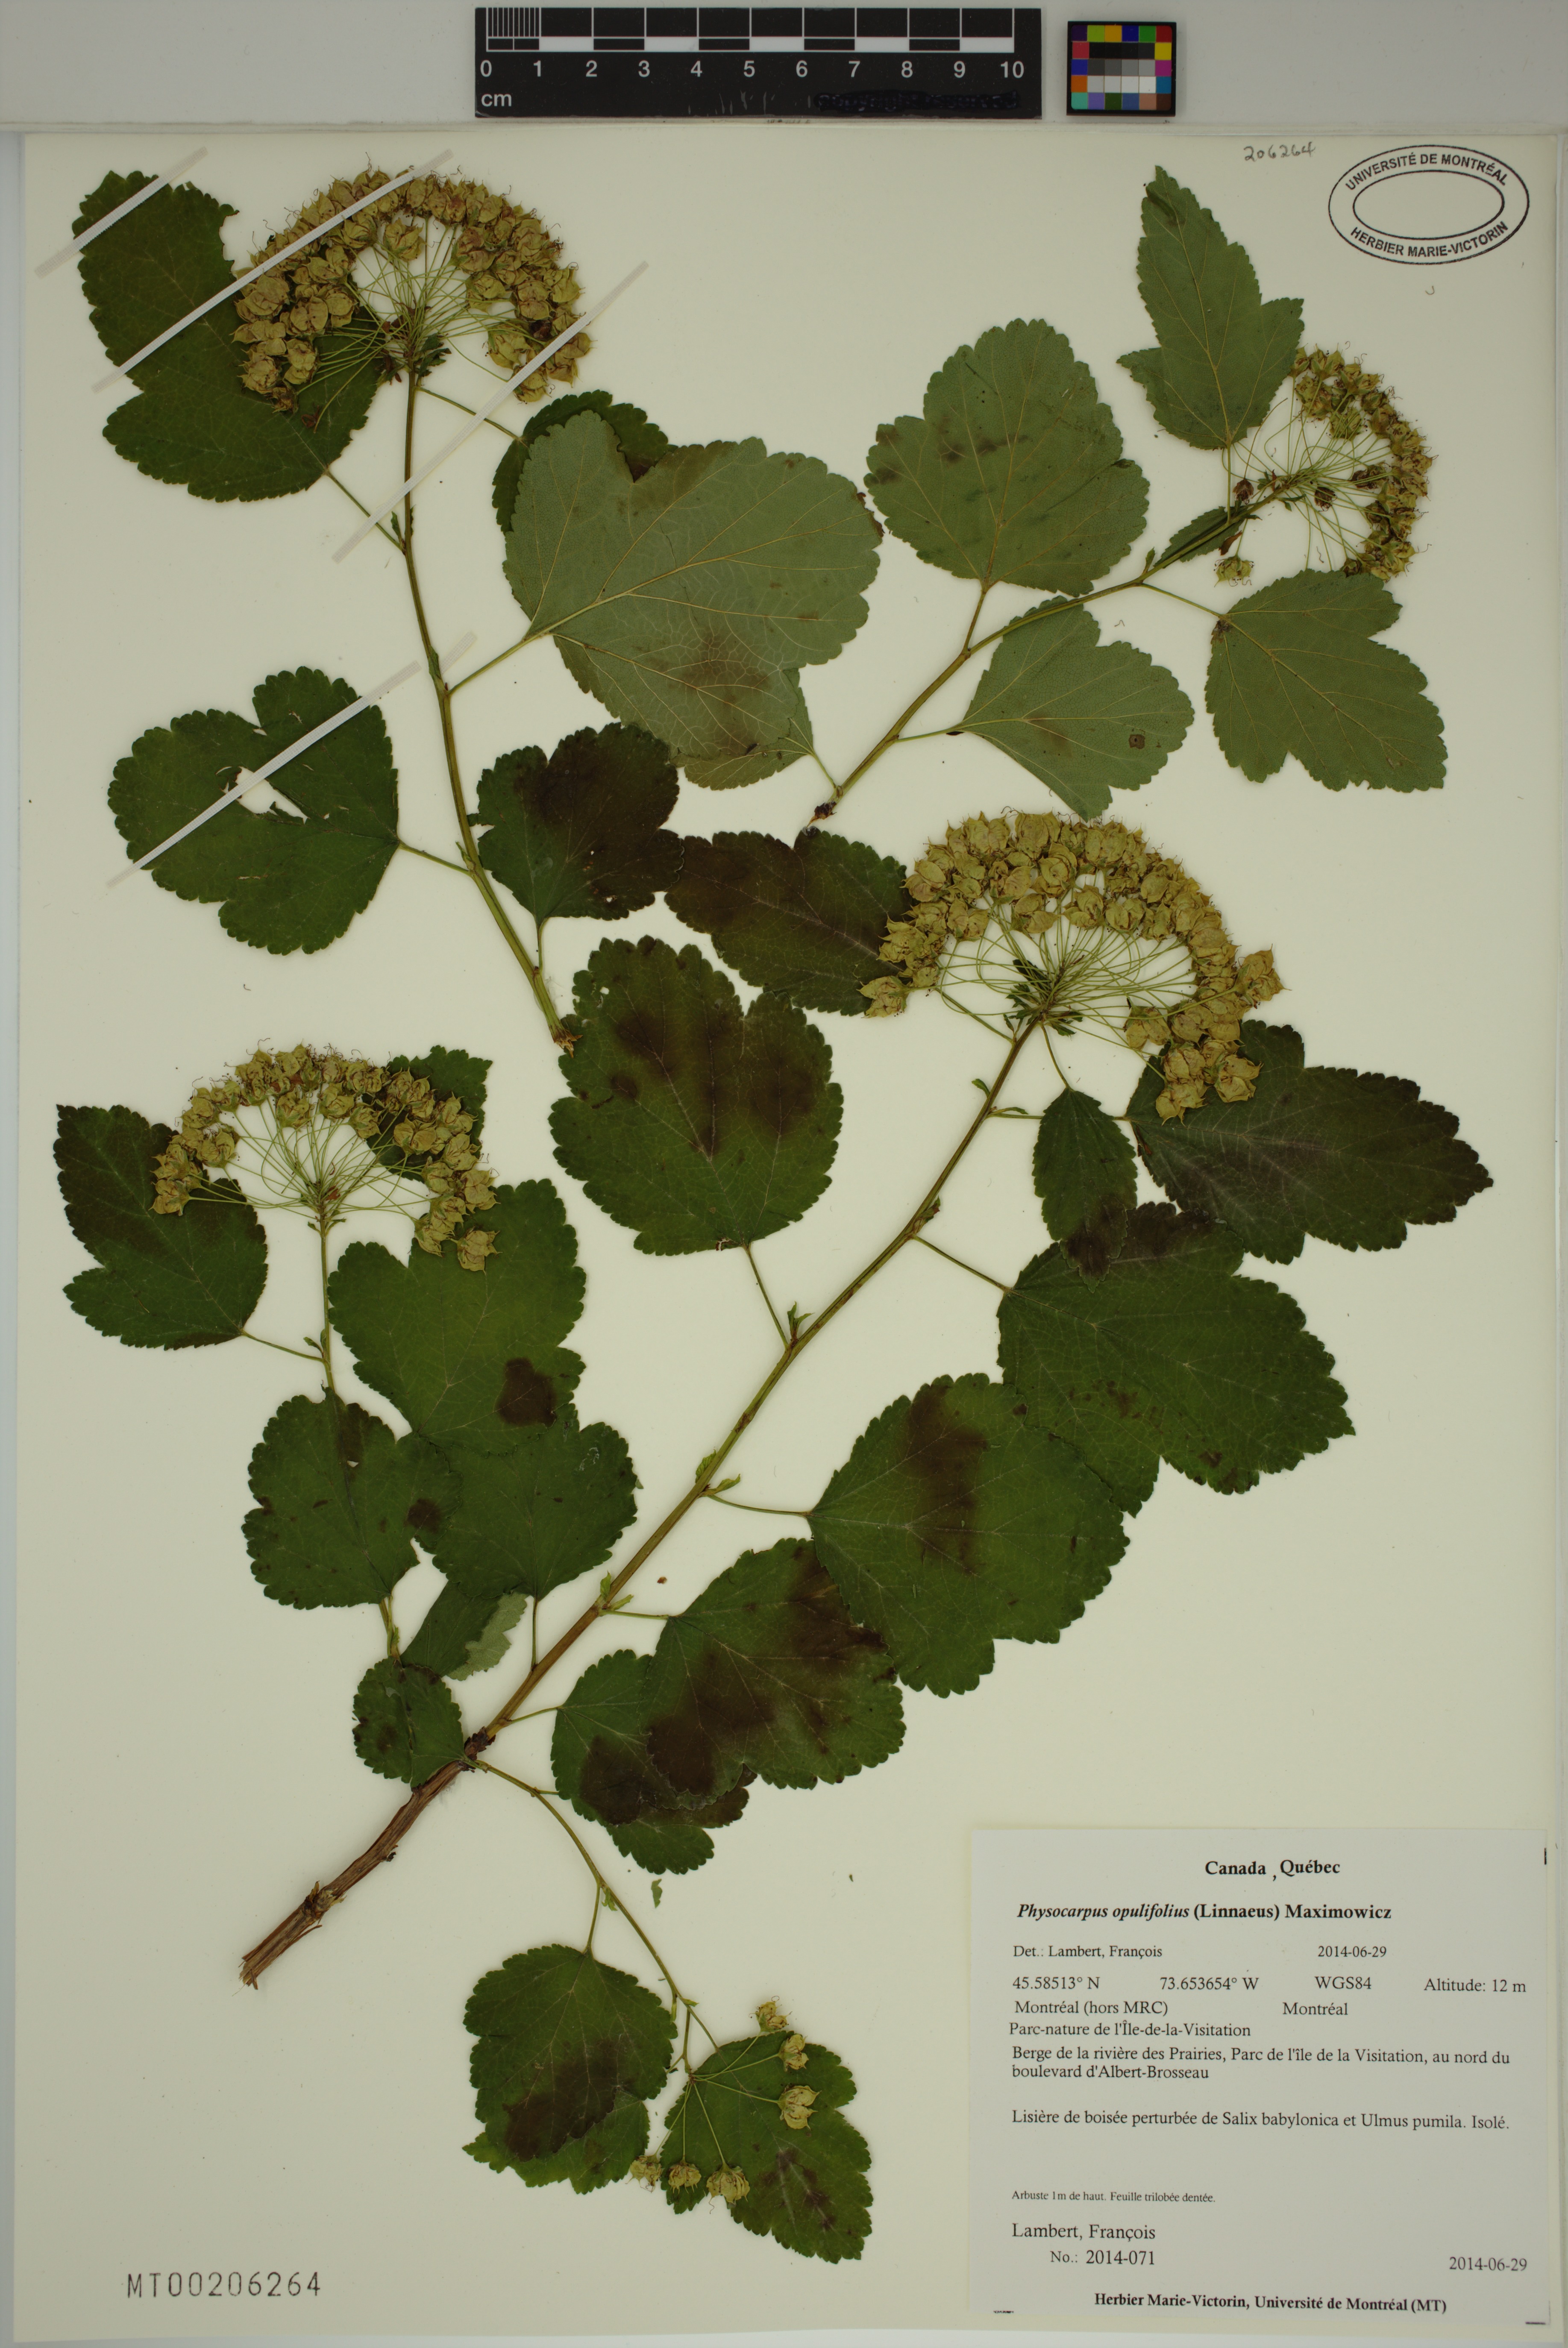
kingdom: Plantae
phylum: Tracheophyta
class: Magnoliopsida
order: Rosales
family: Rosaceae
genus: Physocarpus
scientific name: Physocarpus opulifolius
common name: Ninebark
